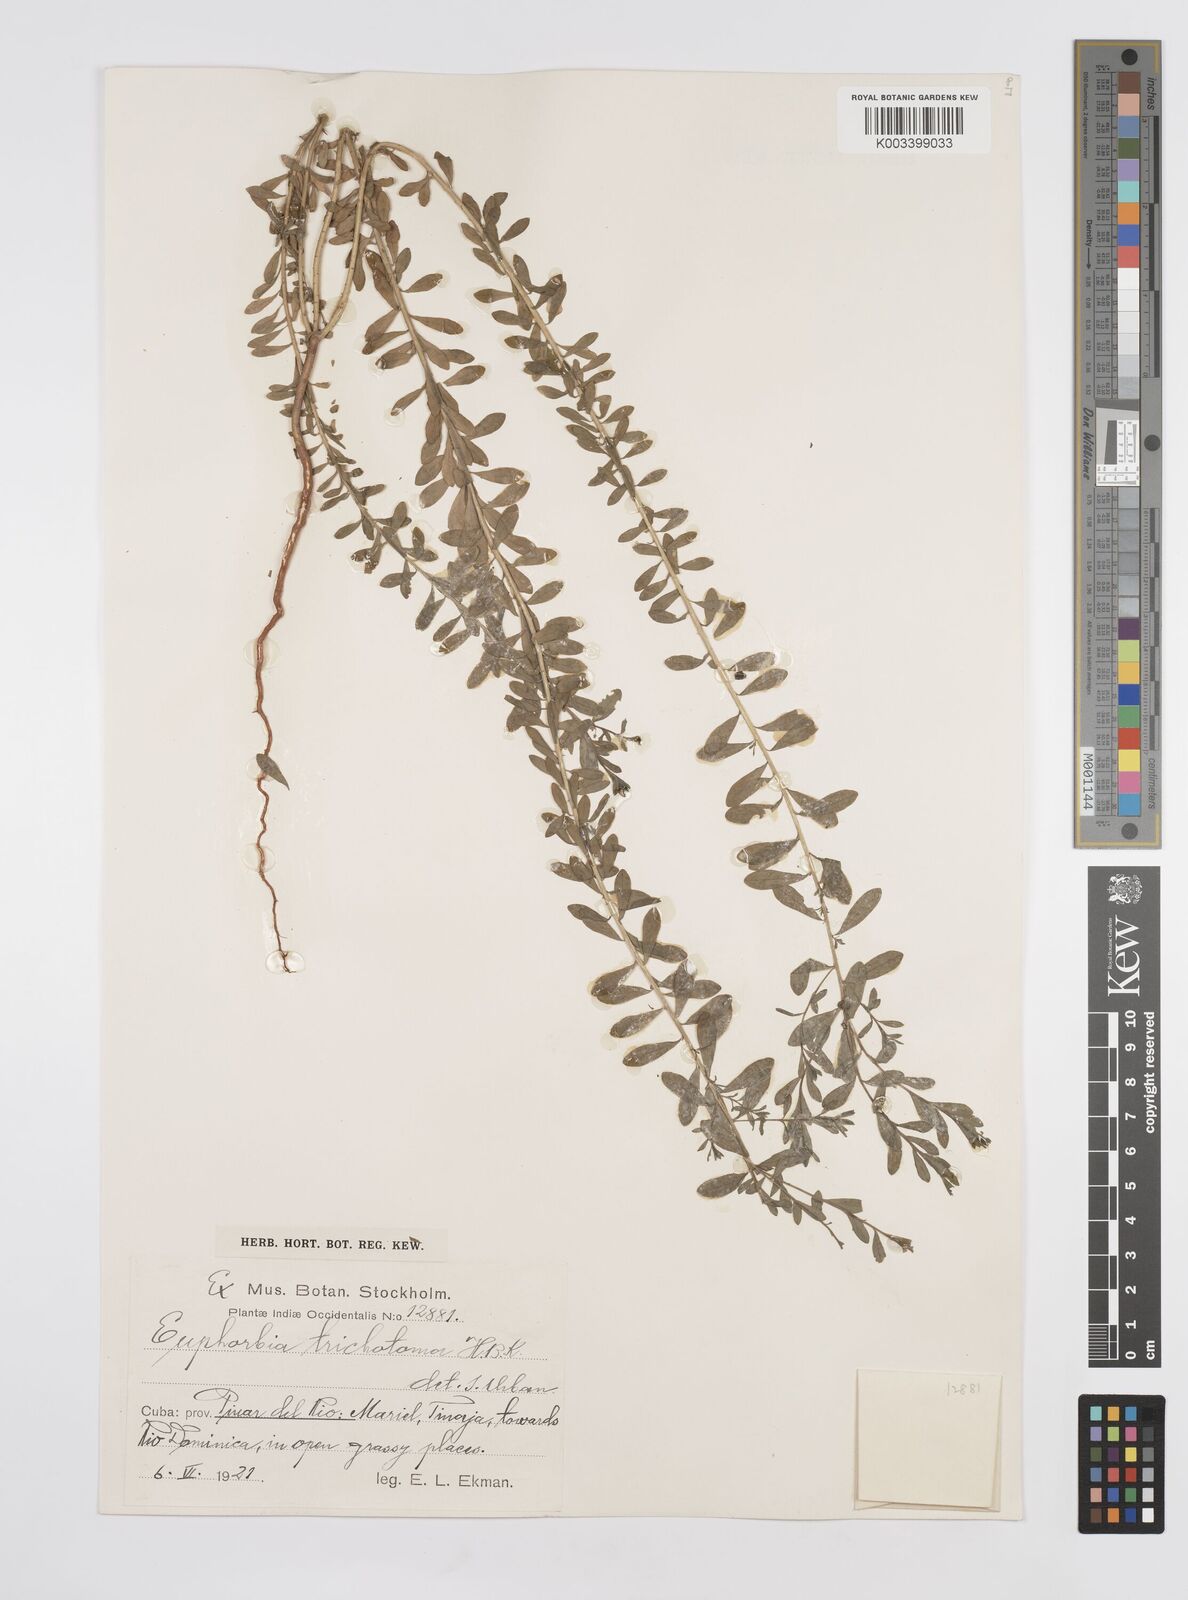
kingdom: Plantae
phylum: Tracheophyta
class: Magnoliopsida
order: Malpighiales
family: Euphorbiaceae
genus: Euphorbia
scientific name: Euphorbia trichotoma
